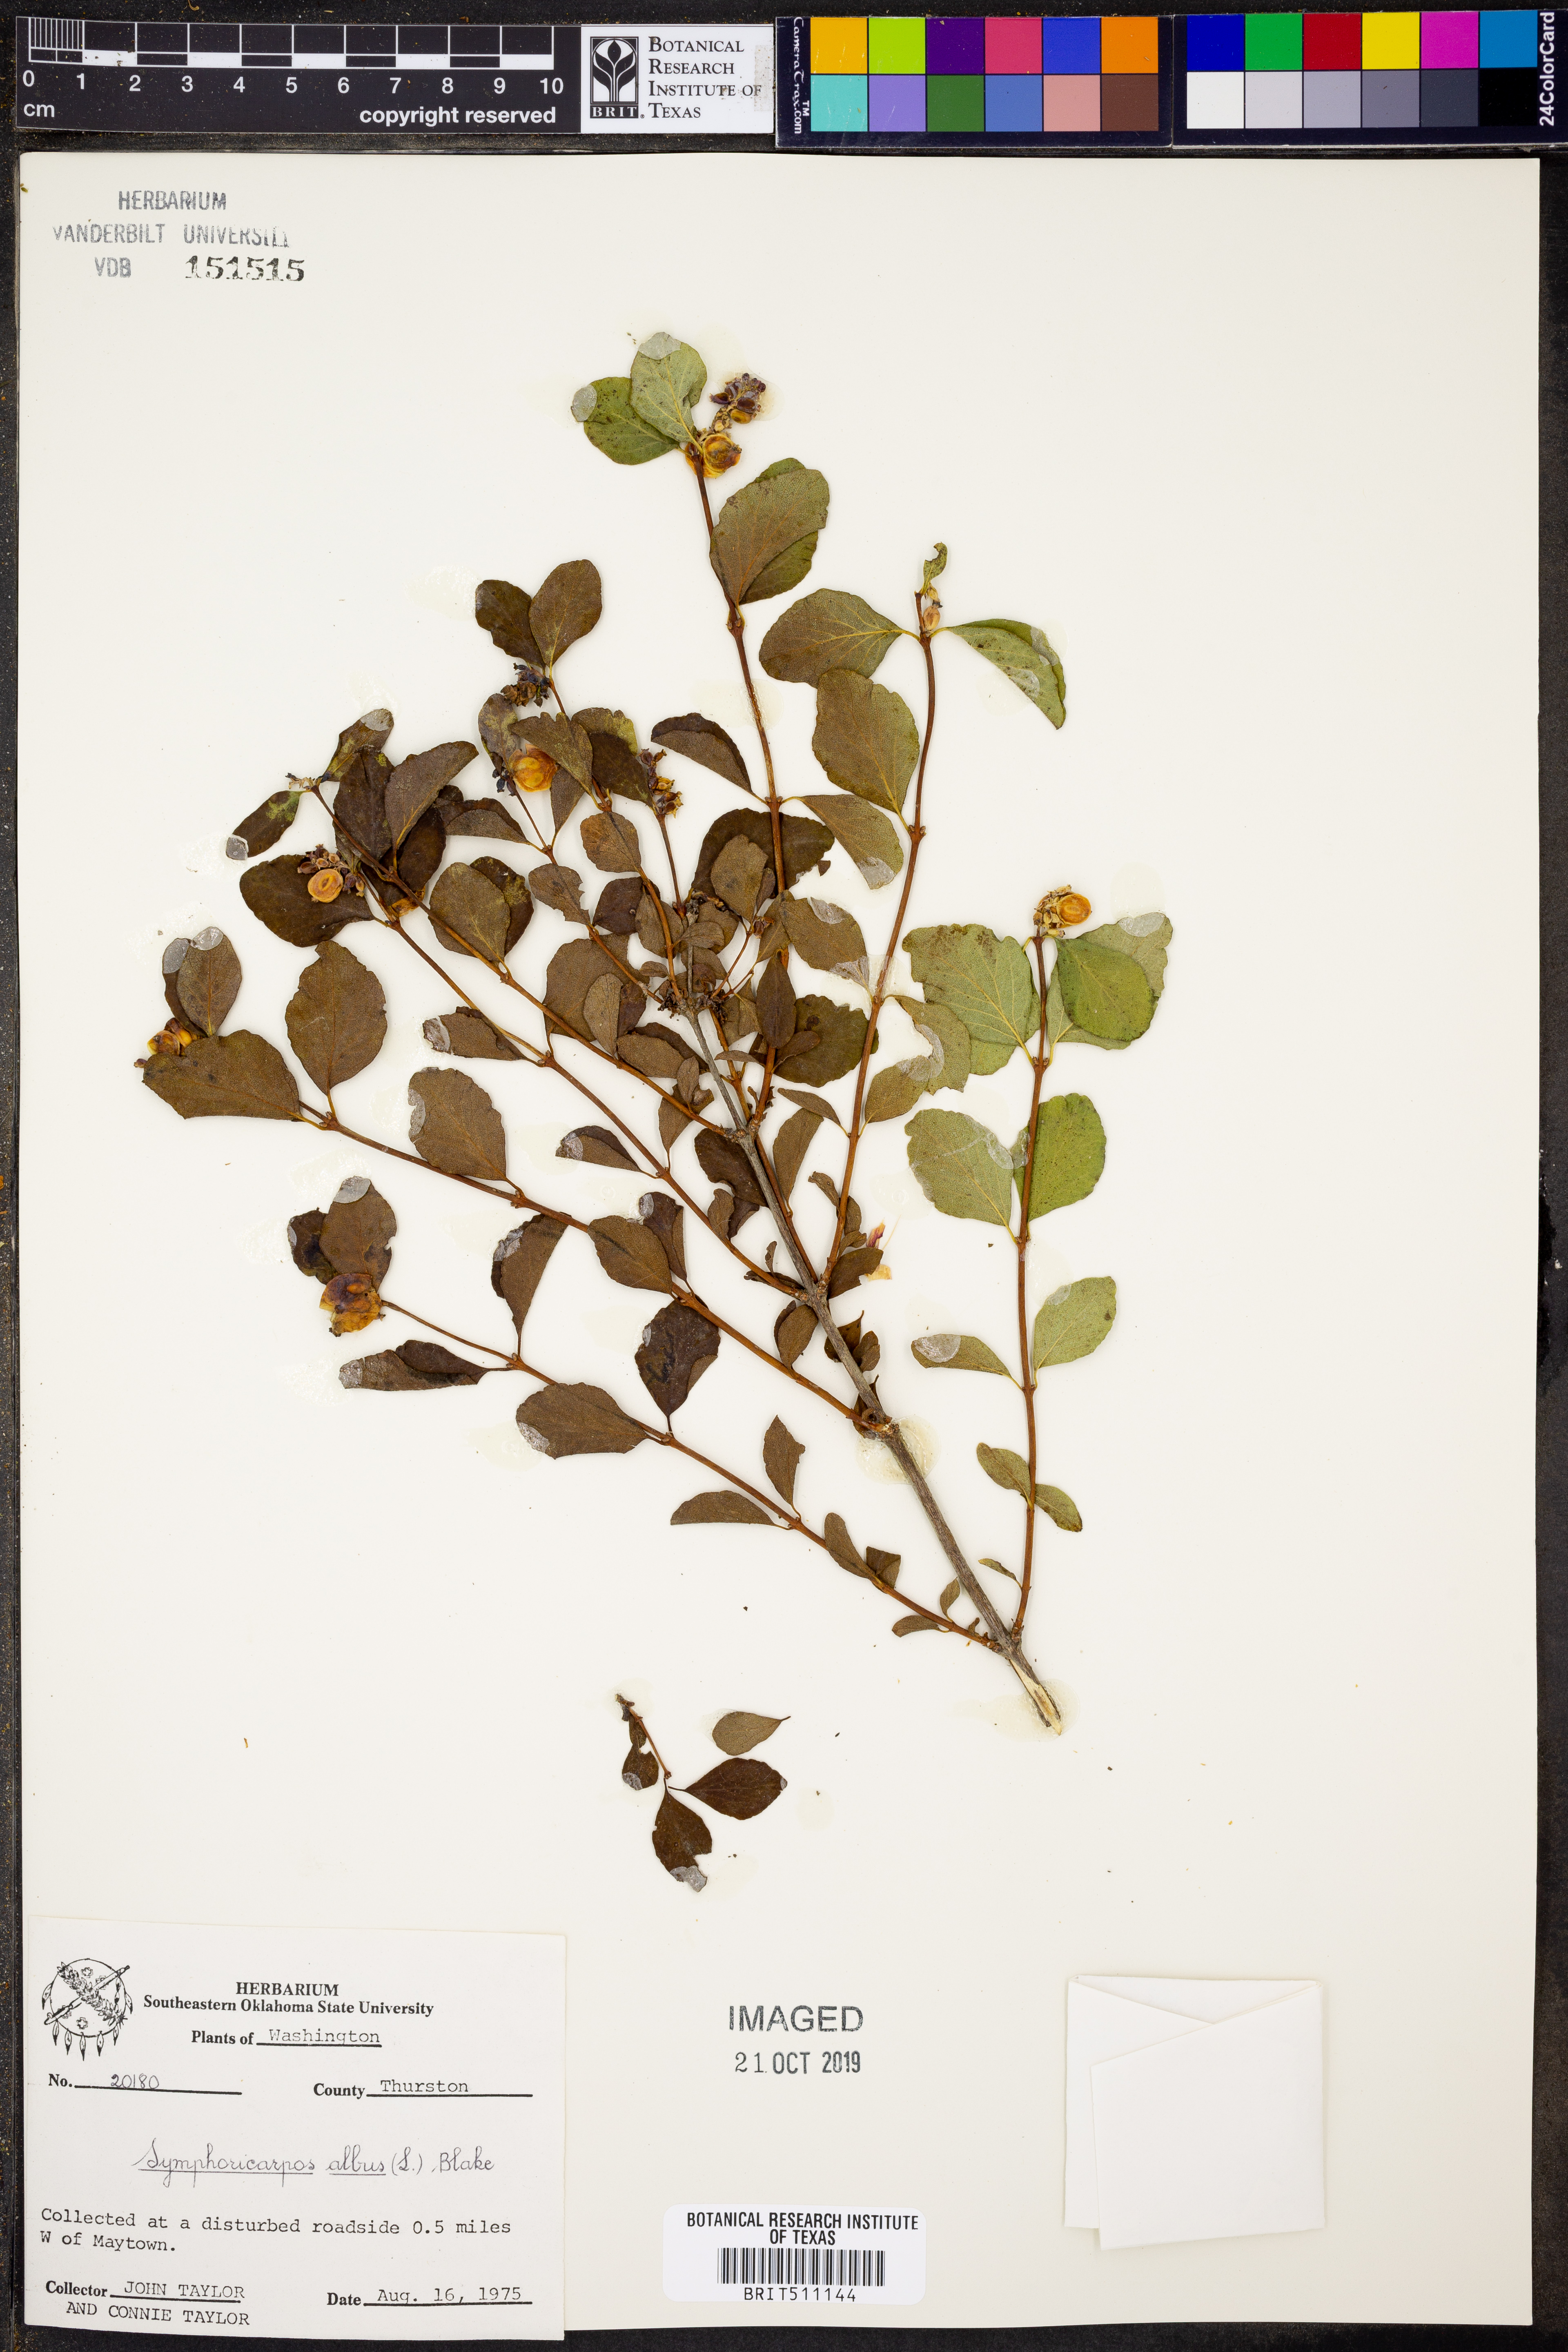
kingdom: Plantae
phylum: Tracheophyta
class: Magnoliopsida
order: Dipsacales
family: Caprifoliaceae
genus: Symphoricarpos
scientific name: Symphoricarpos albus
